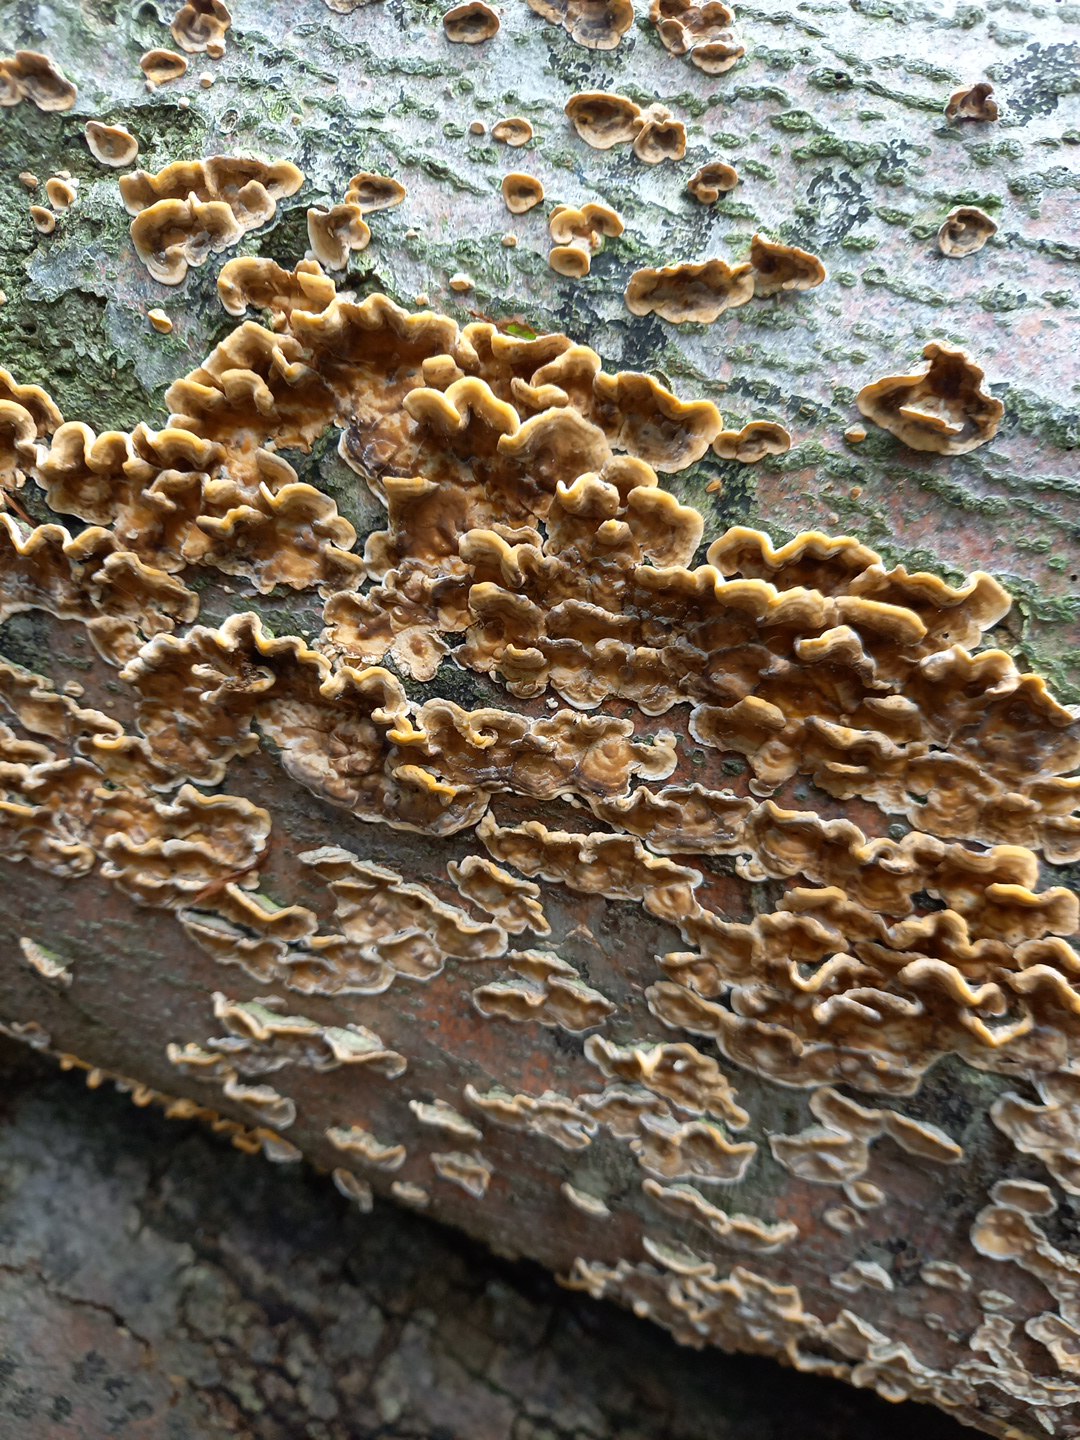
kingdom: Fungi
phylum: Basidiomycota
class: Agaricomycetes
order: Russulales
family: Stereaceae
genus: Stereum
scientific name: Stereum hirsutum
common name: håret lædersvamp
